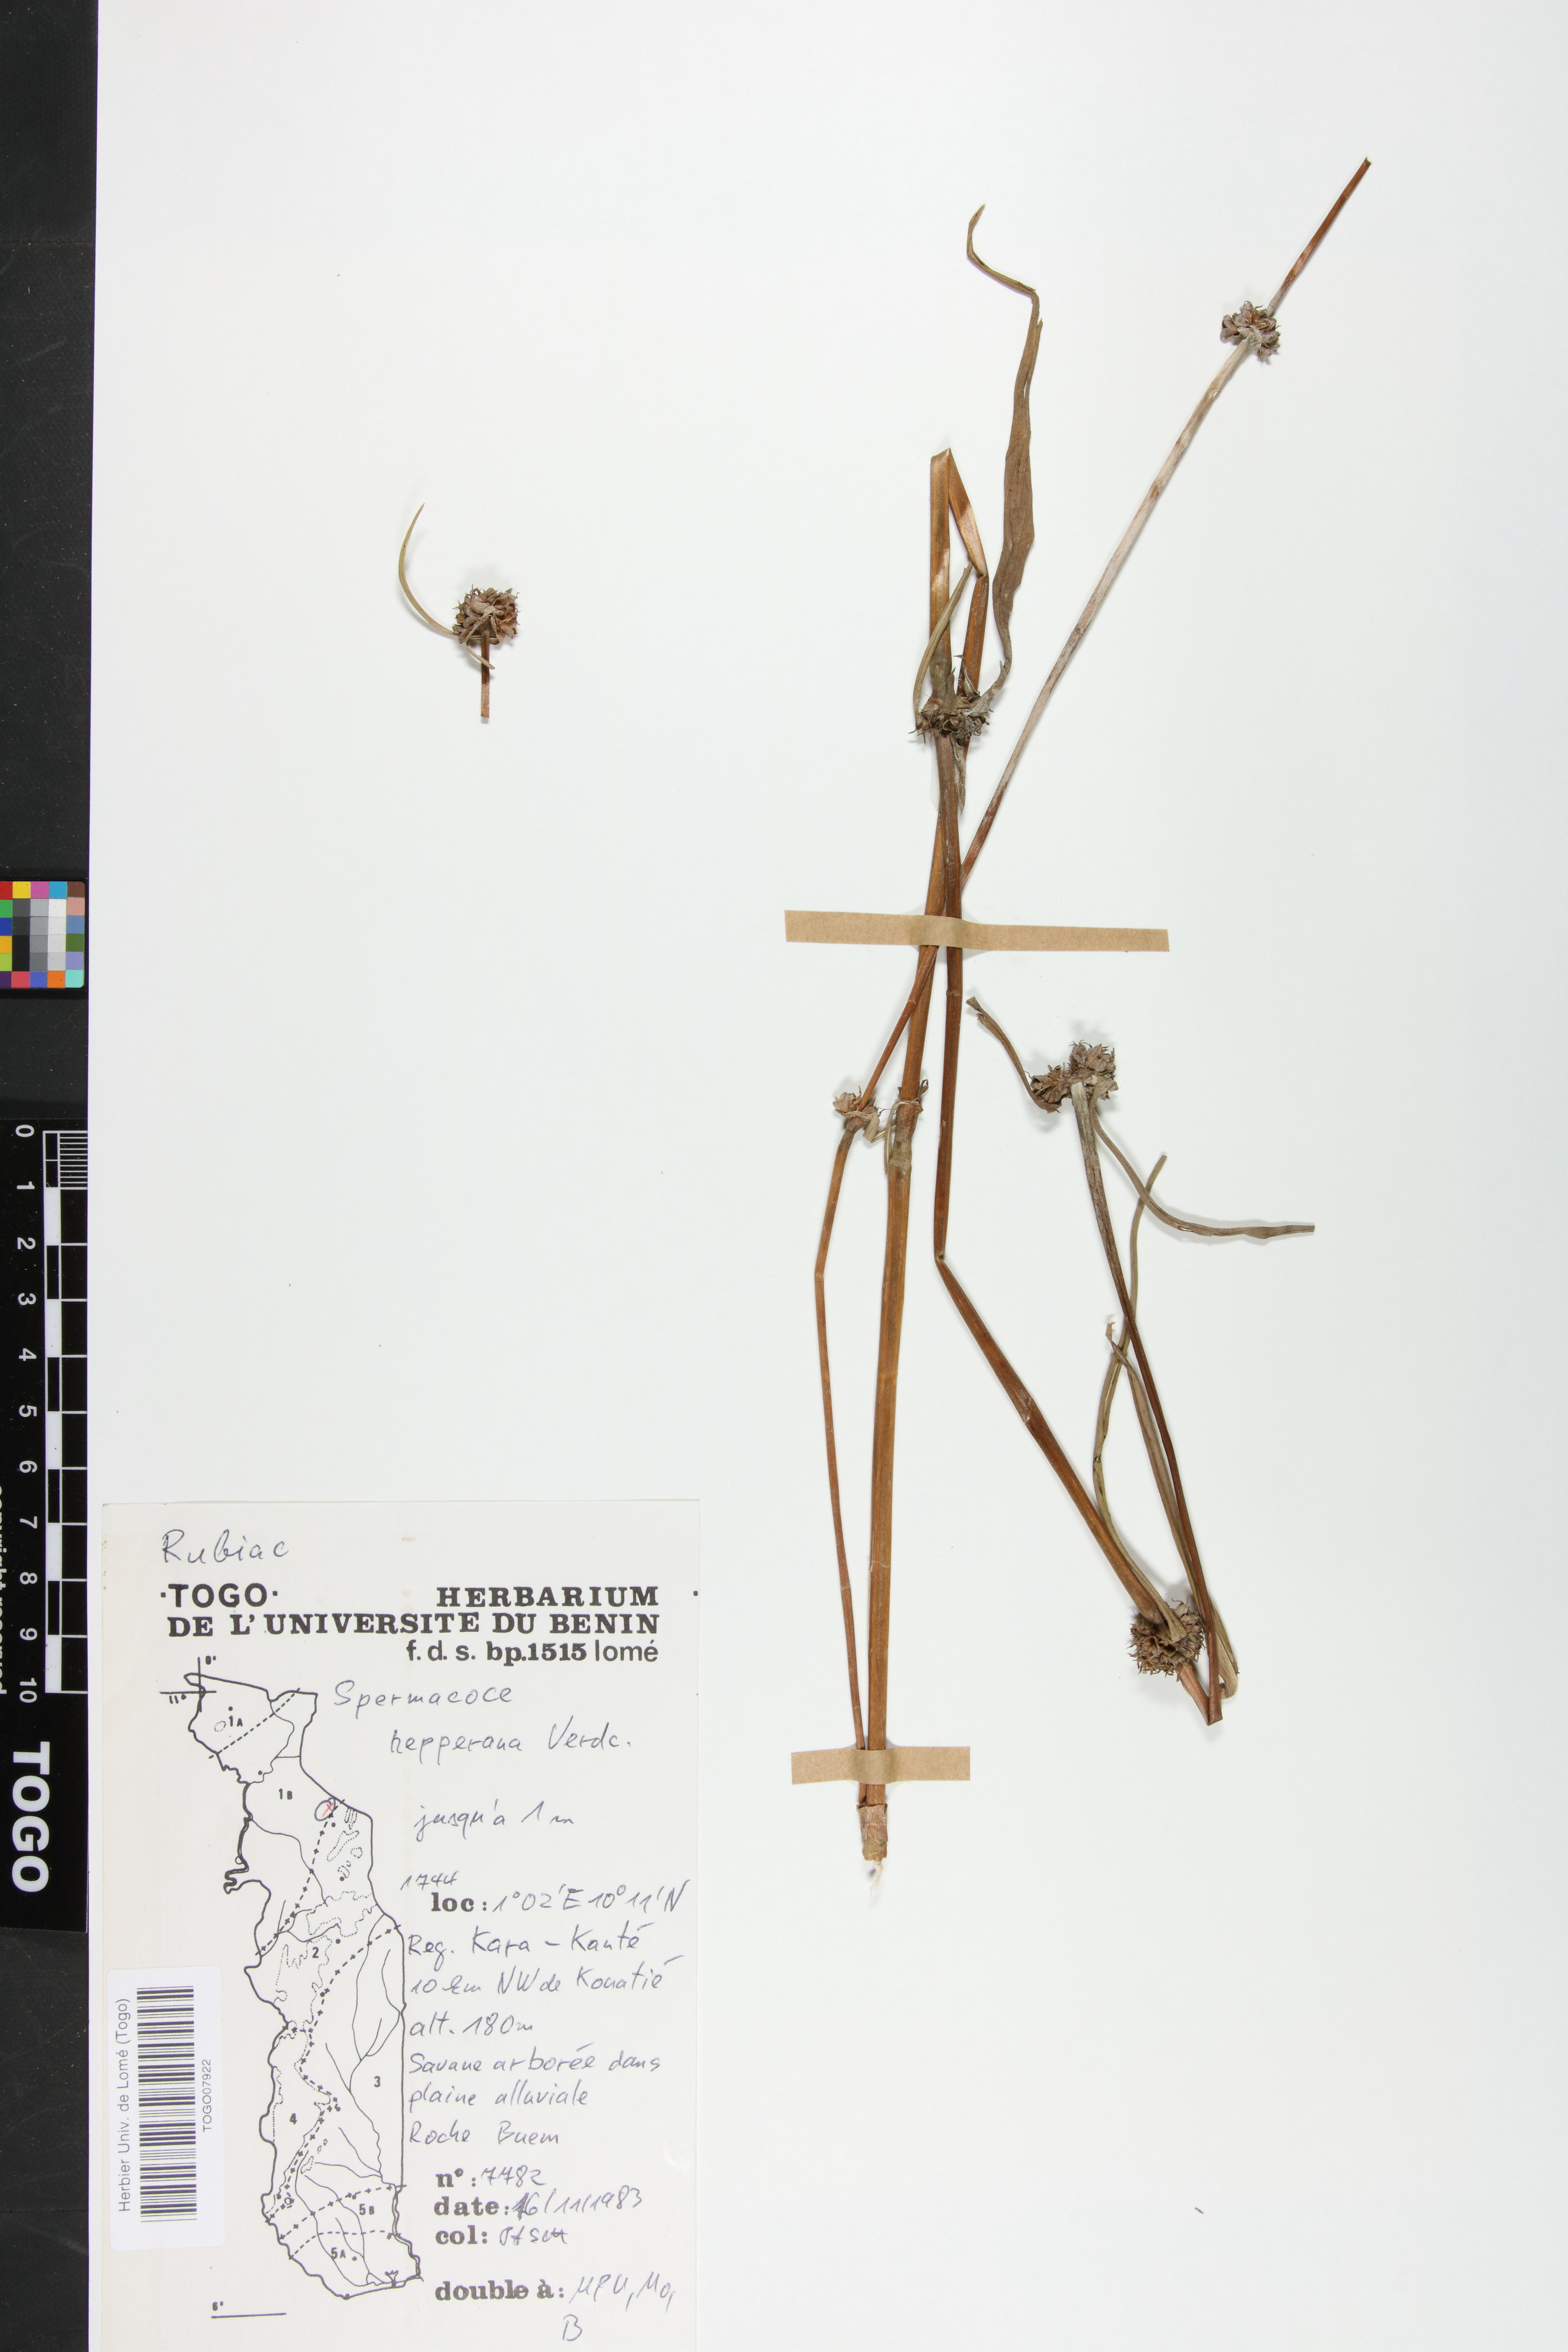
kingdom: Plantae
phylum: Tracheophyta
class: Magnoliopsida
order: Gentianales
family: Rubiaceae
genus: Spermacoce
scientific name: Spermacoce
